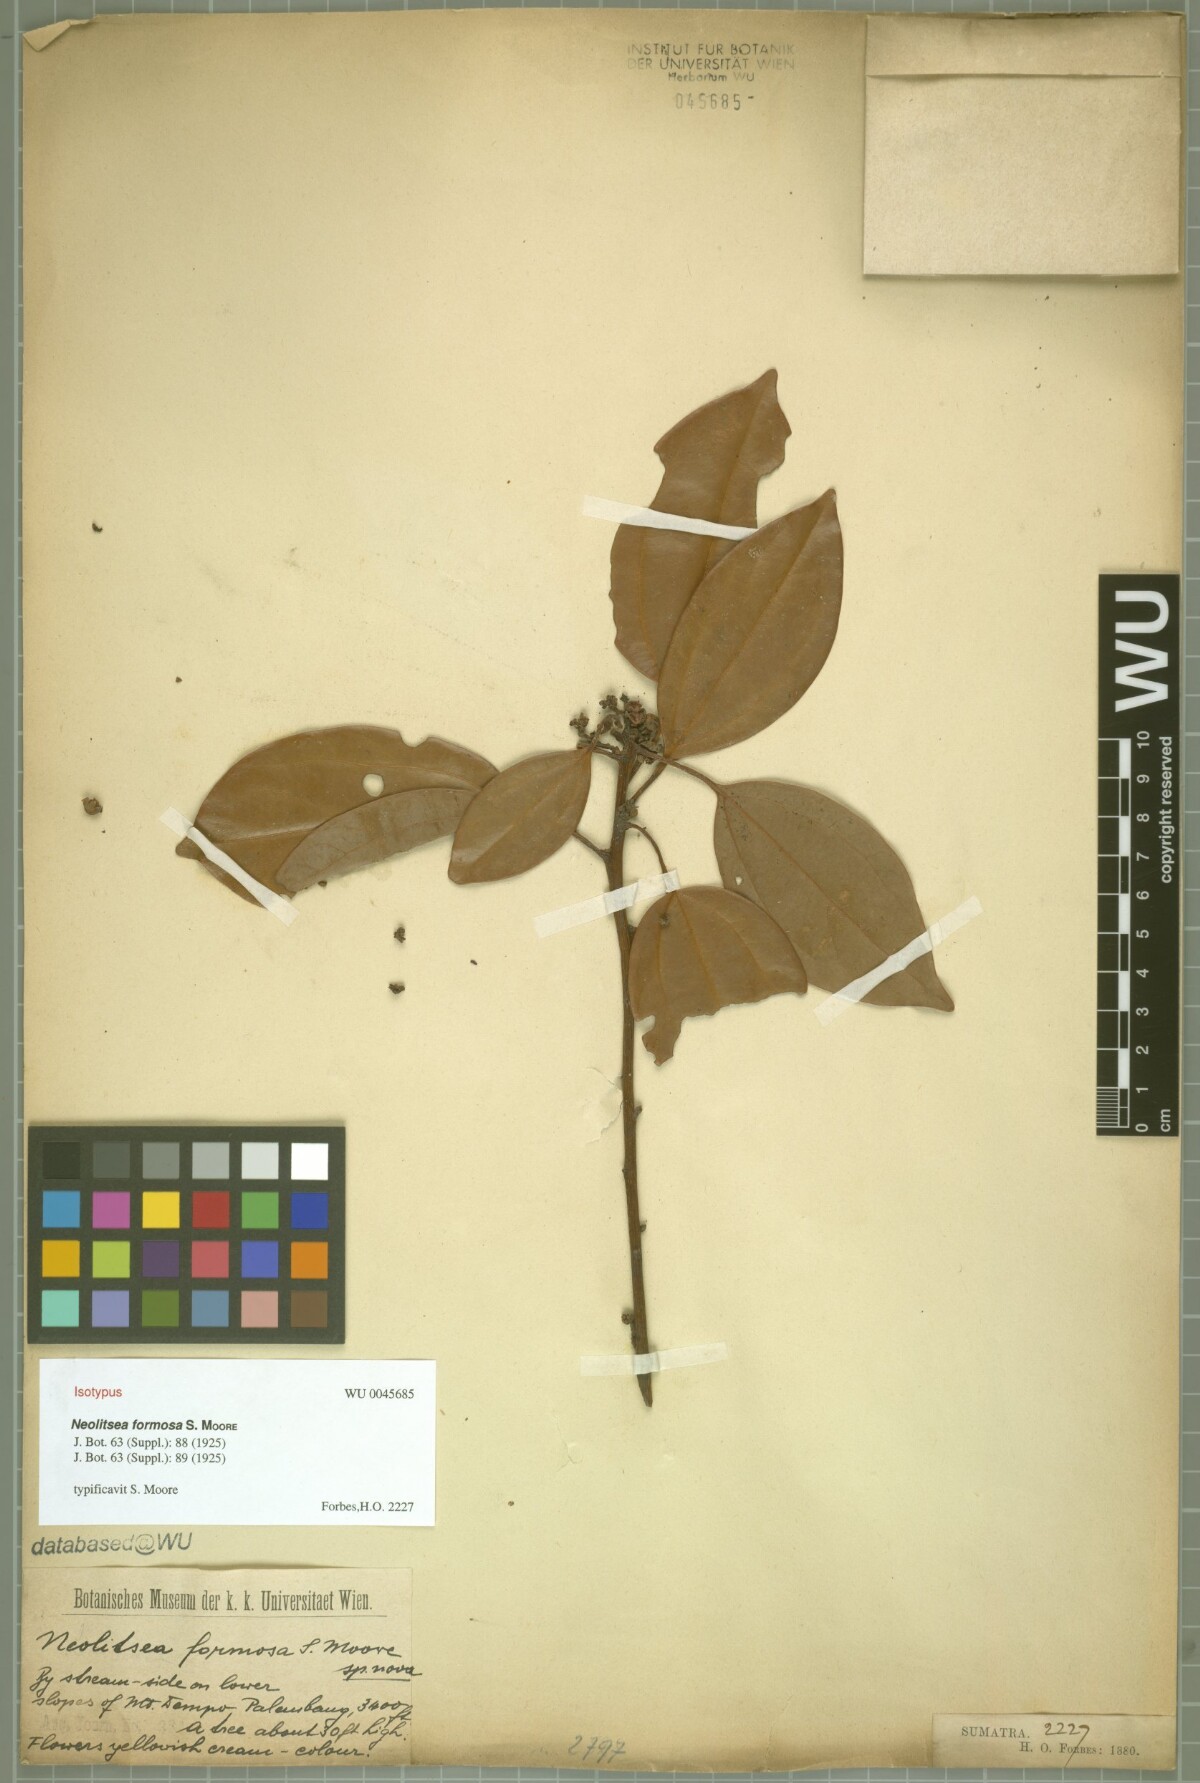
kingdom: Plantae
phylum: Tracheophyta
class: Magnoliopsida
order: Laurales
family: Lauraceae
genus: Neolitsea
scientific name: Neolitsea formosa
